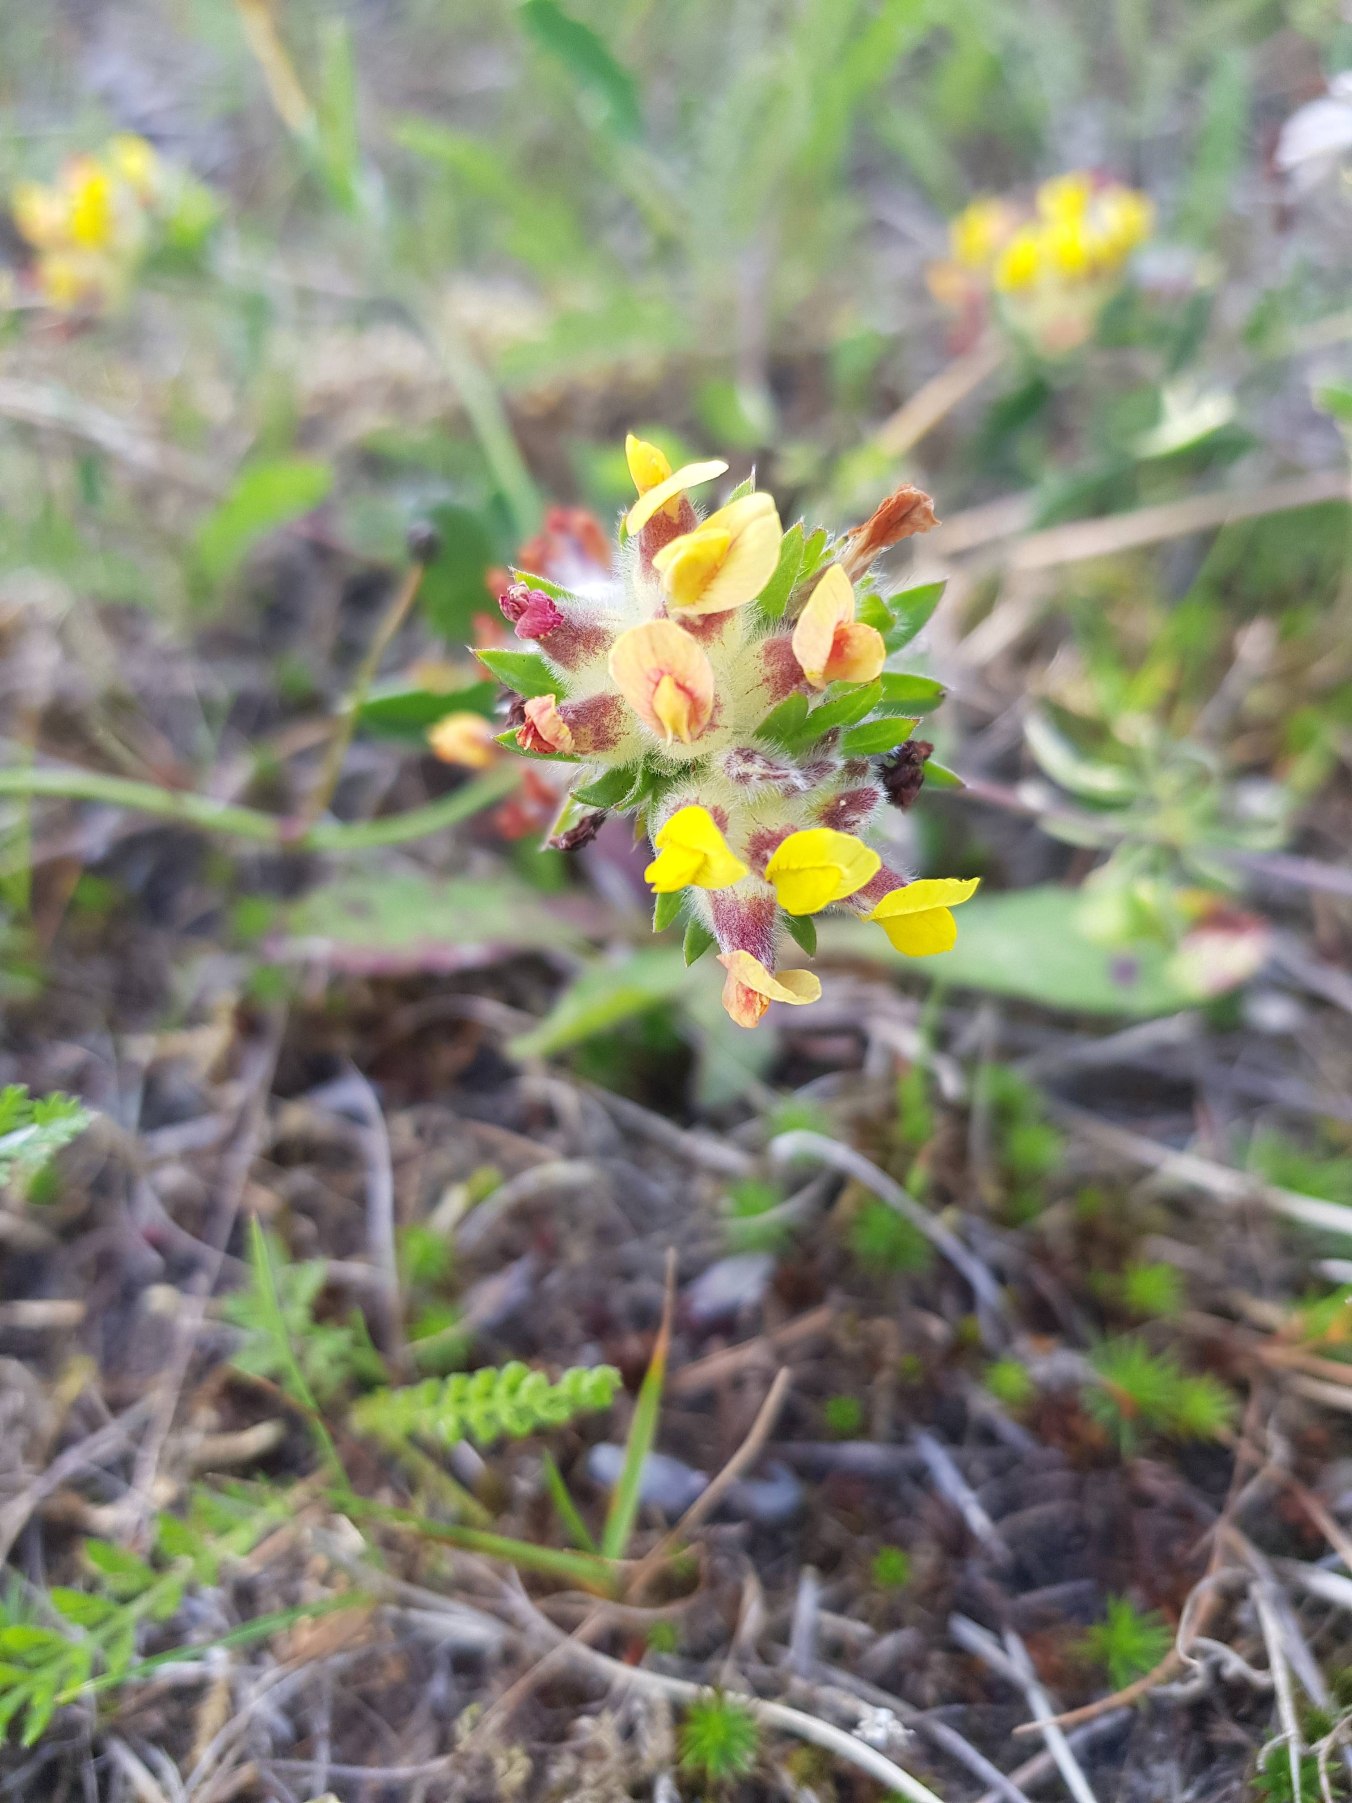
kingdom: Plantae
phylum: Tracheophyta
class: Magnoliopsida
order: Fabales
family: Fabaceae
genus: Anthyllis
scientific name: Anthyllis vulneraria
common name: Rundbælg
